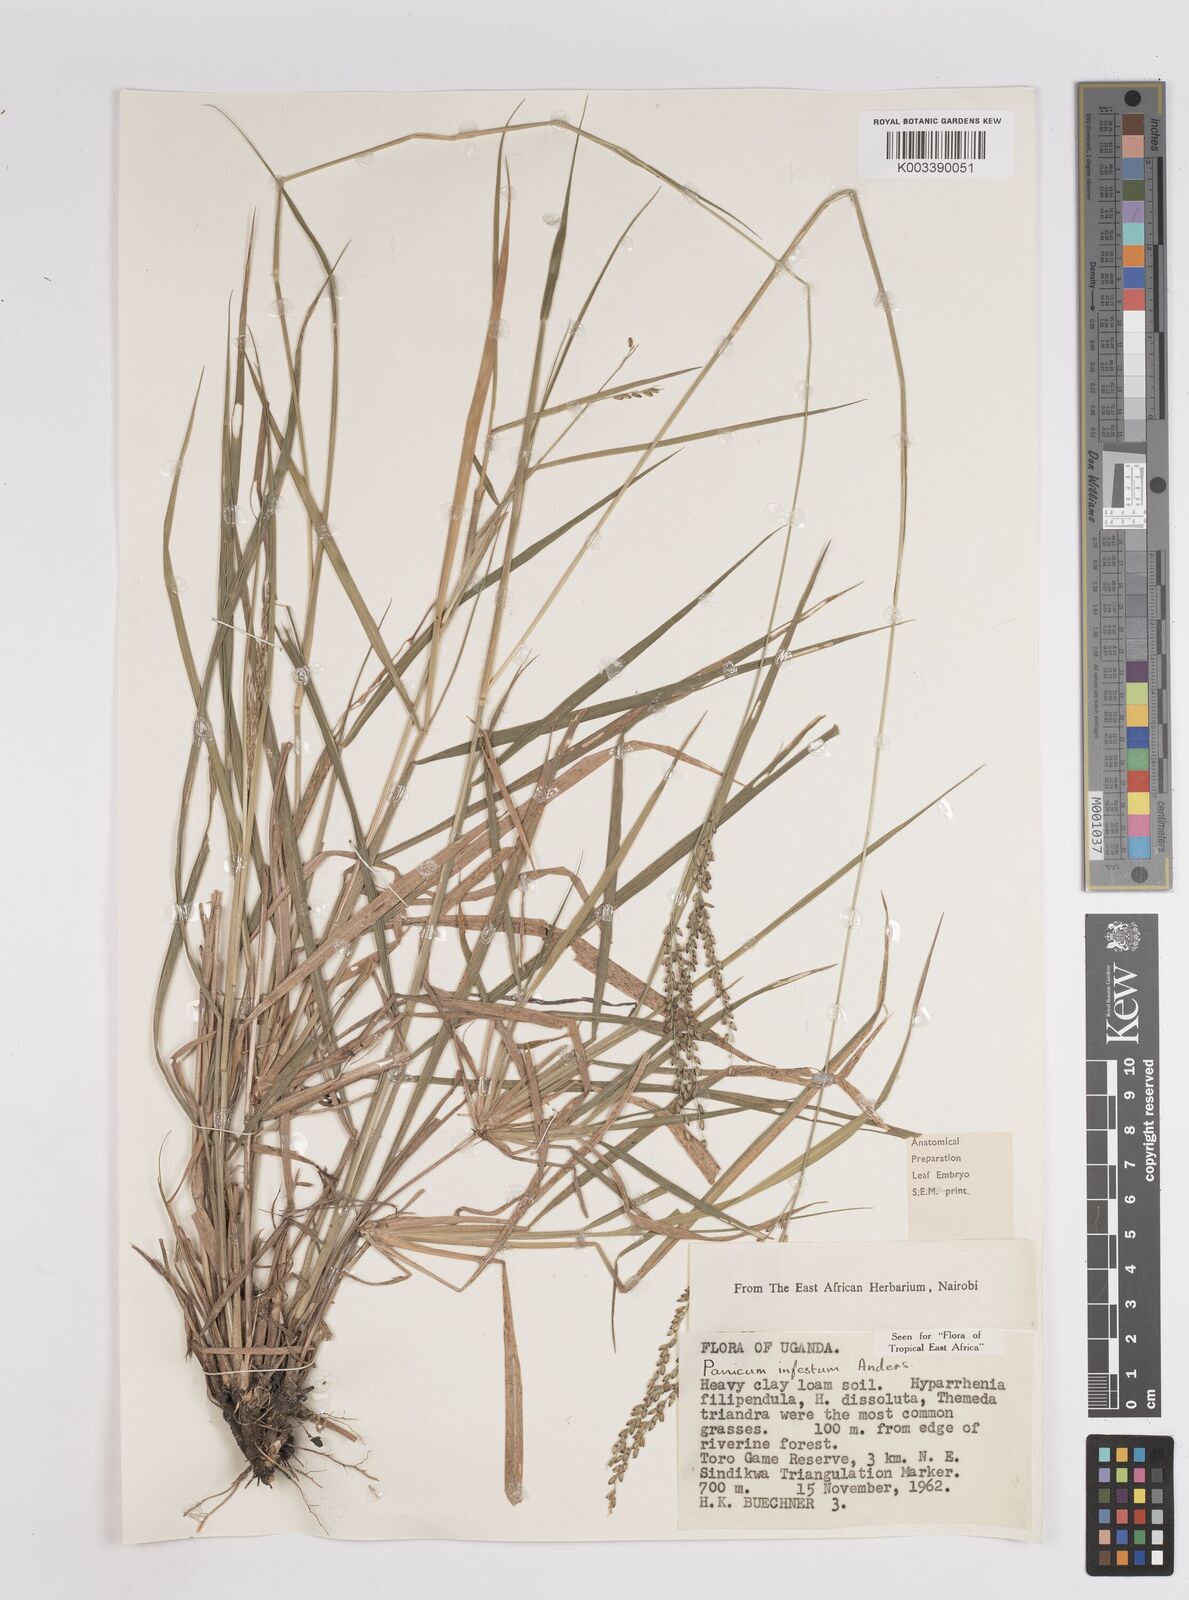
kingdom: Plantae
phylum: Tracheophyta
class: Liliopsida
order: Poales
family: Poaceae
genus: Megathyrsus
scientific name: Megathyrsus infestus
